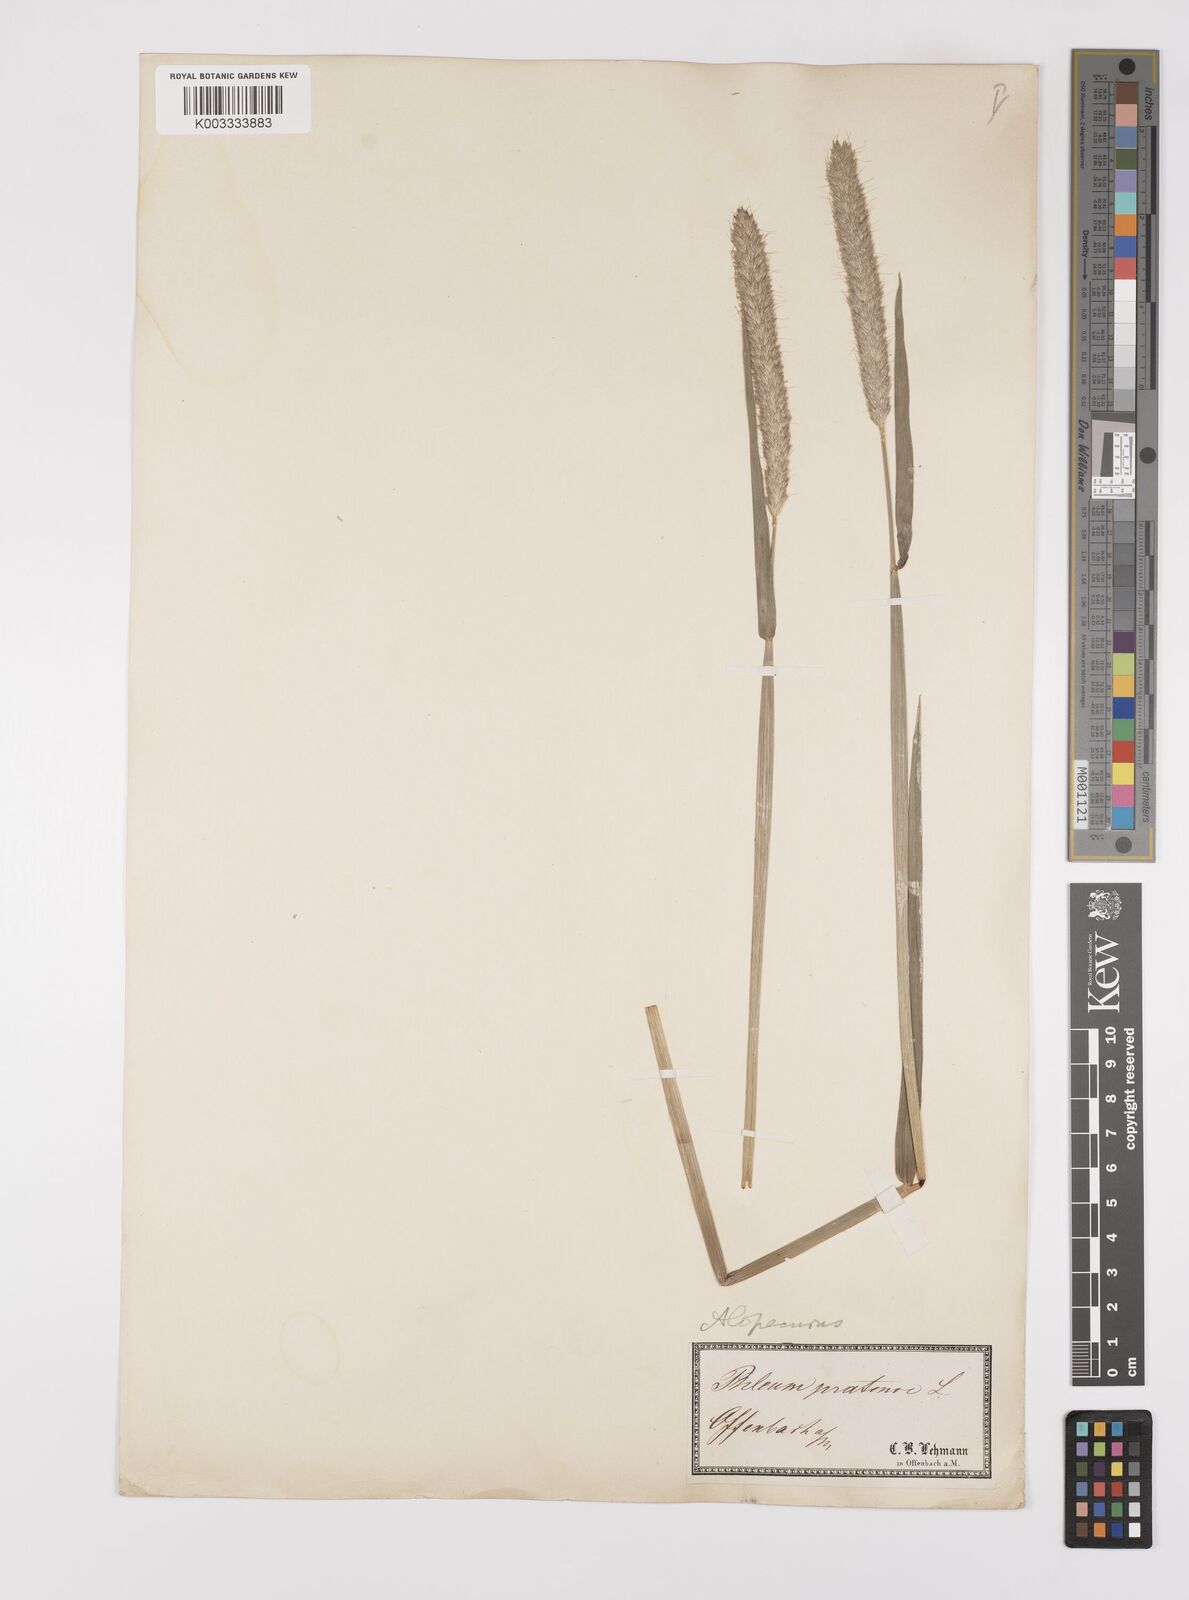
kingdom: Plantae
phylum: Tracheophyta
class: Liliopsida
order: Poales
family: Poaceae
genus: Alopecurus
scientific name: Alopecurus pratensis
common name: Meadow foxtail
